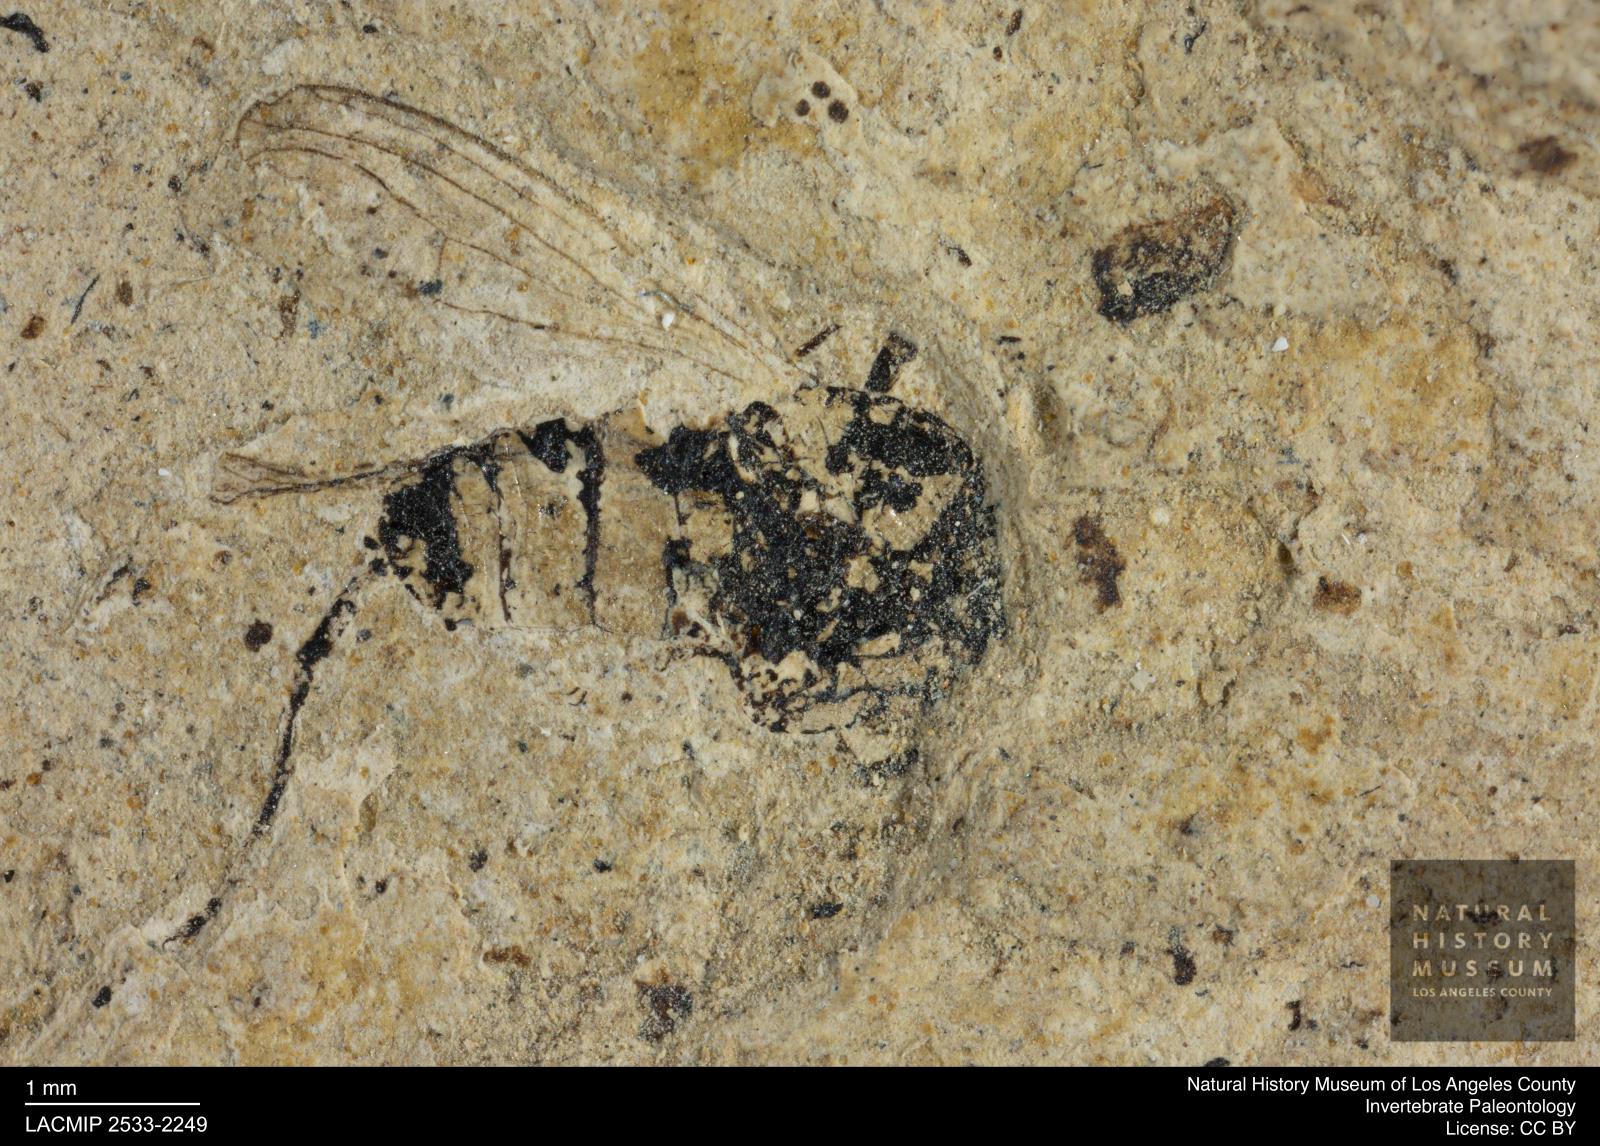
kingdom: Animalia
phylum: Arthropoda
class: Insecta
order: Diptera
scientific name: Diptera
